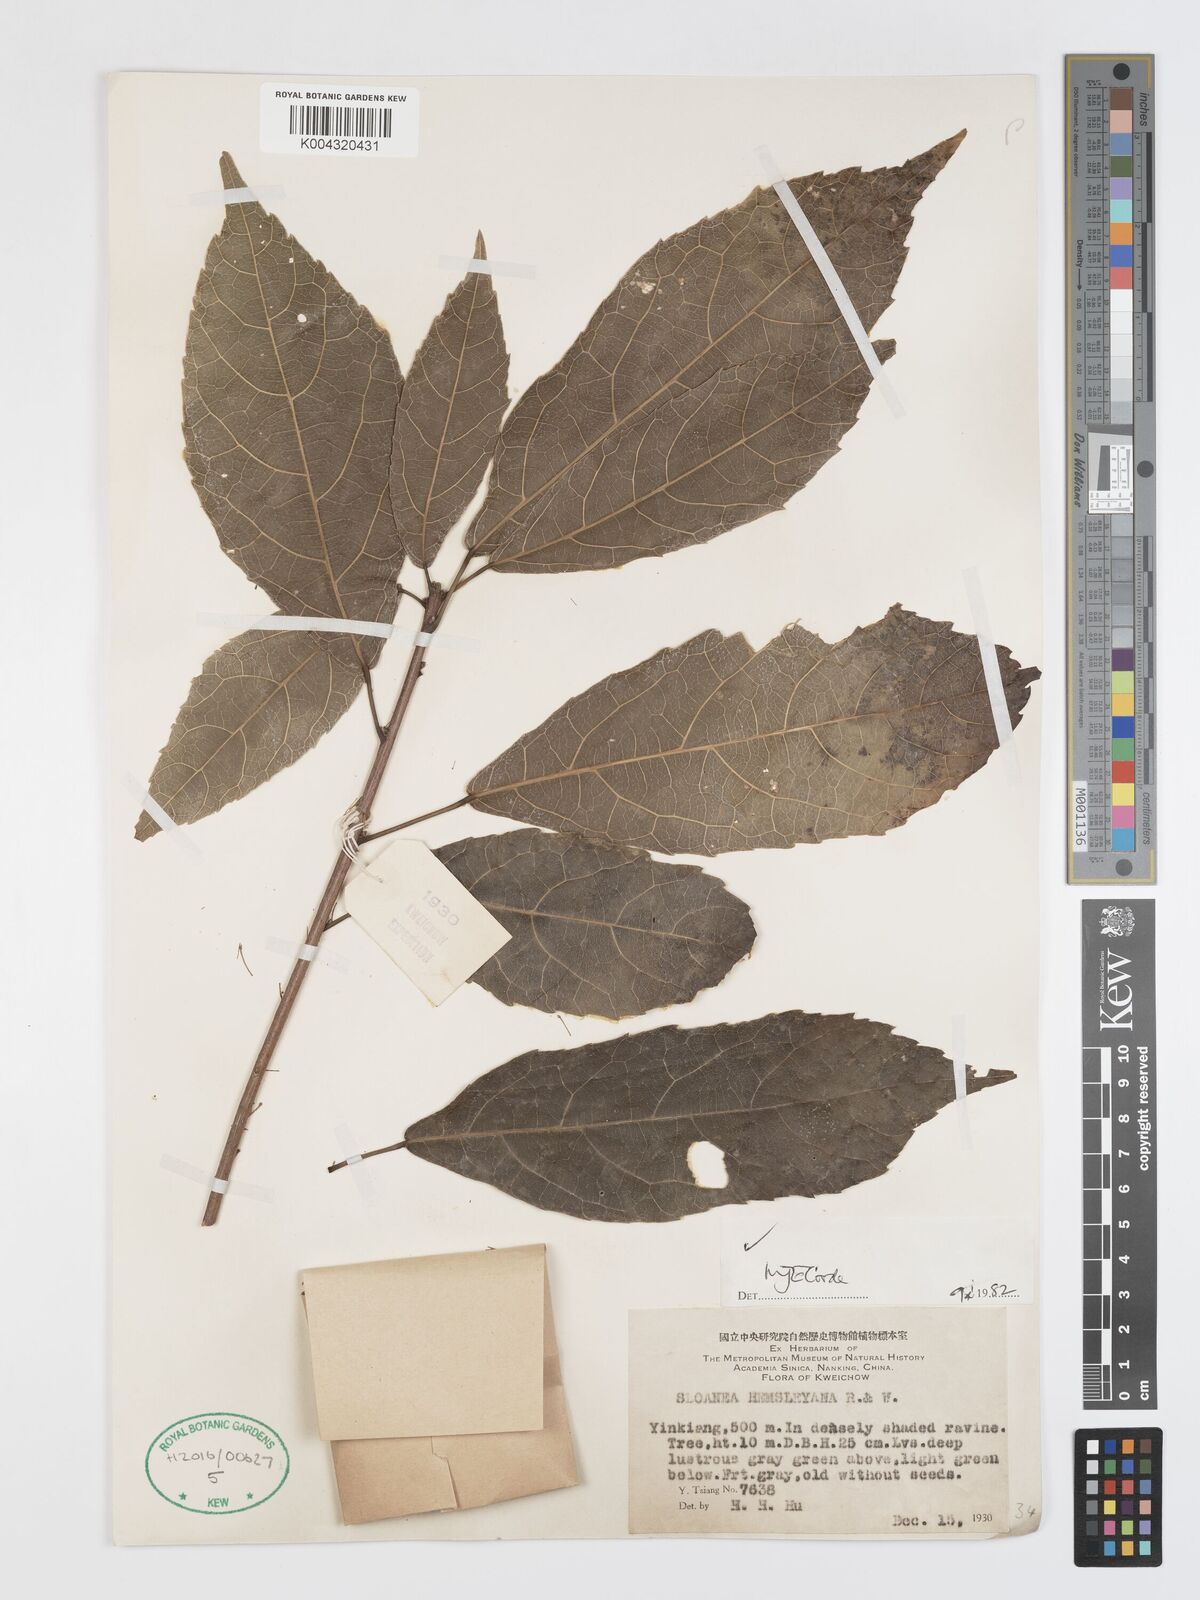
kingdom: Plantae
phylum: Tracheophyta
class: Magnoliopsida
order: Oxalidales
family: Elaeocarpaceae
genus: Sloanea
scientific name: Sloanea hemsleyana
